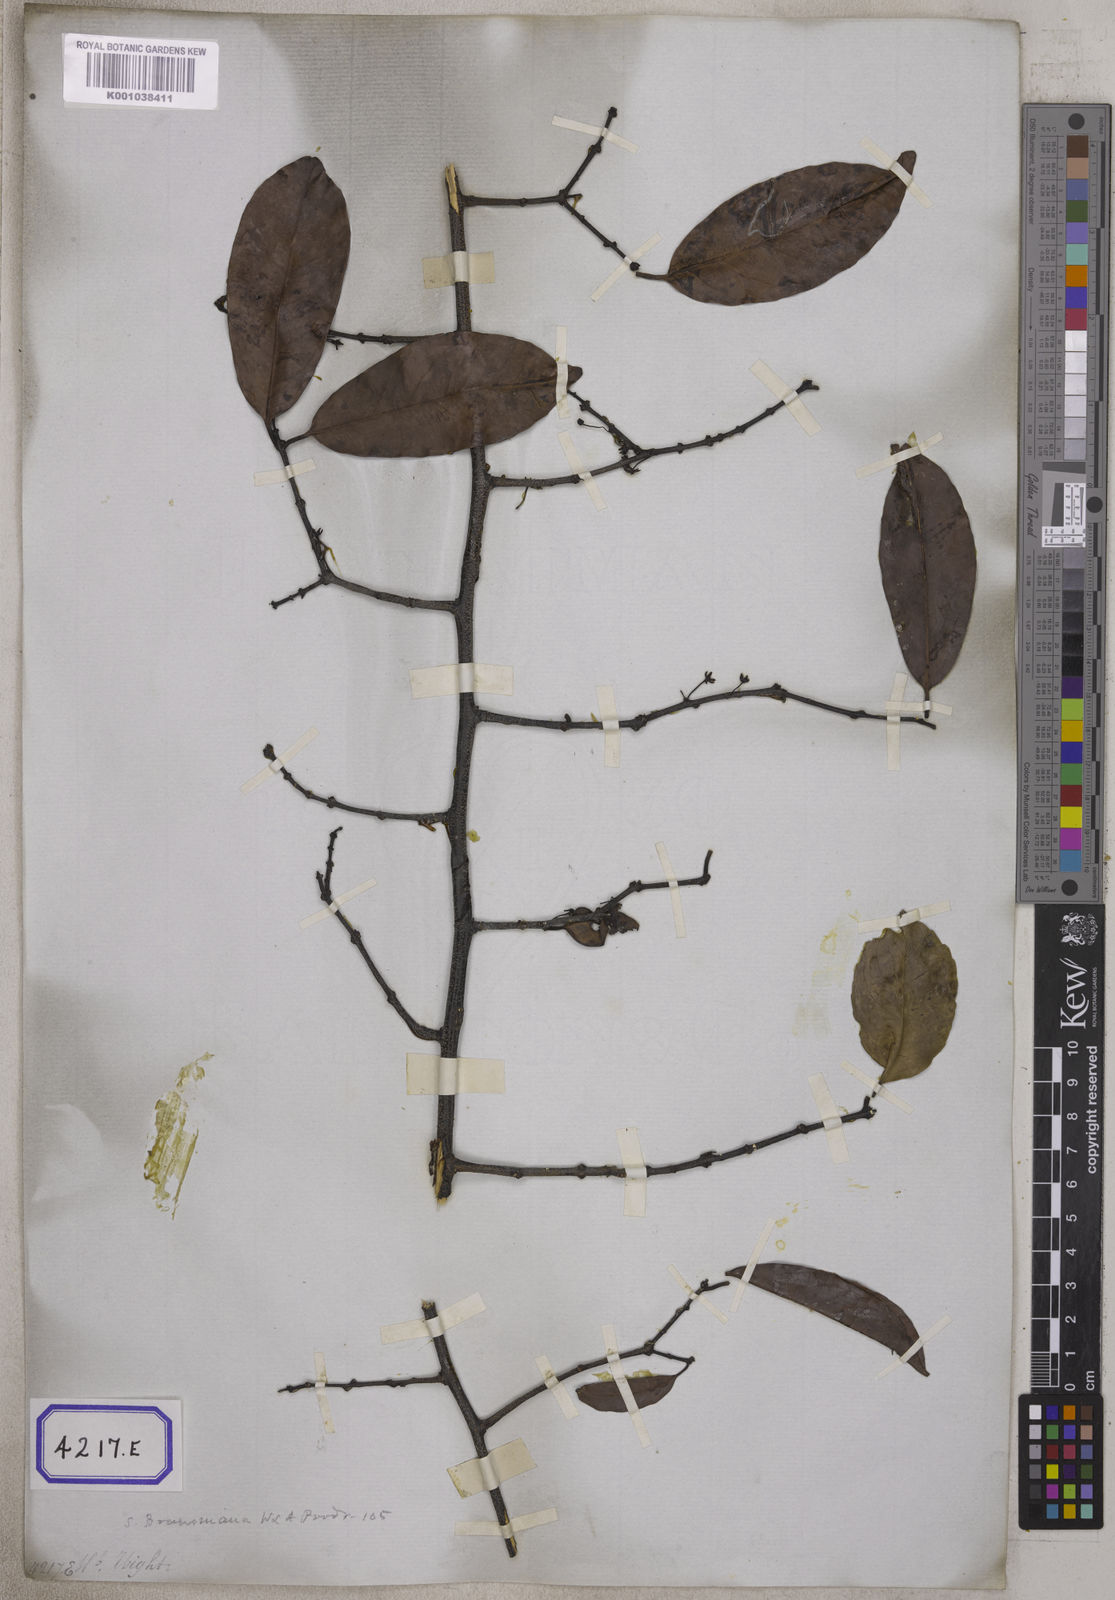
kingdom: Plantae
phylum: Tracheophyta
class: Magnoliopsida
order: Celastrales
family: Celastraceae
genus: Salacia
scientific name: Salacia
